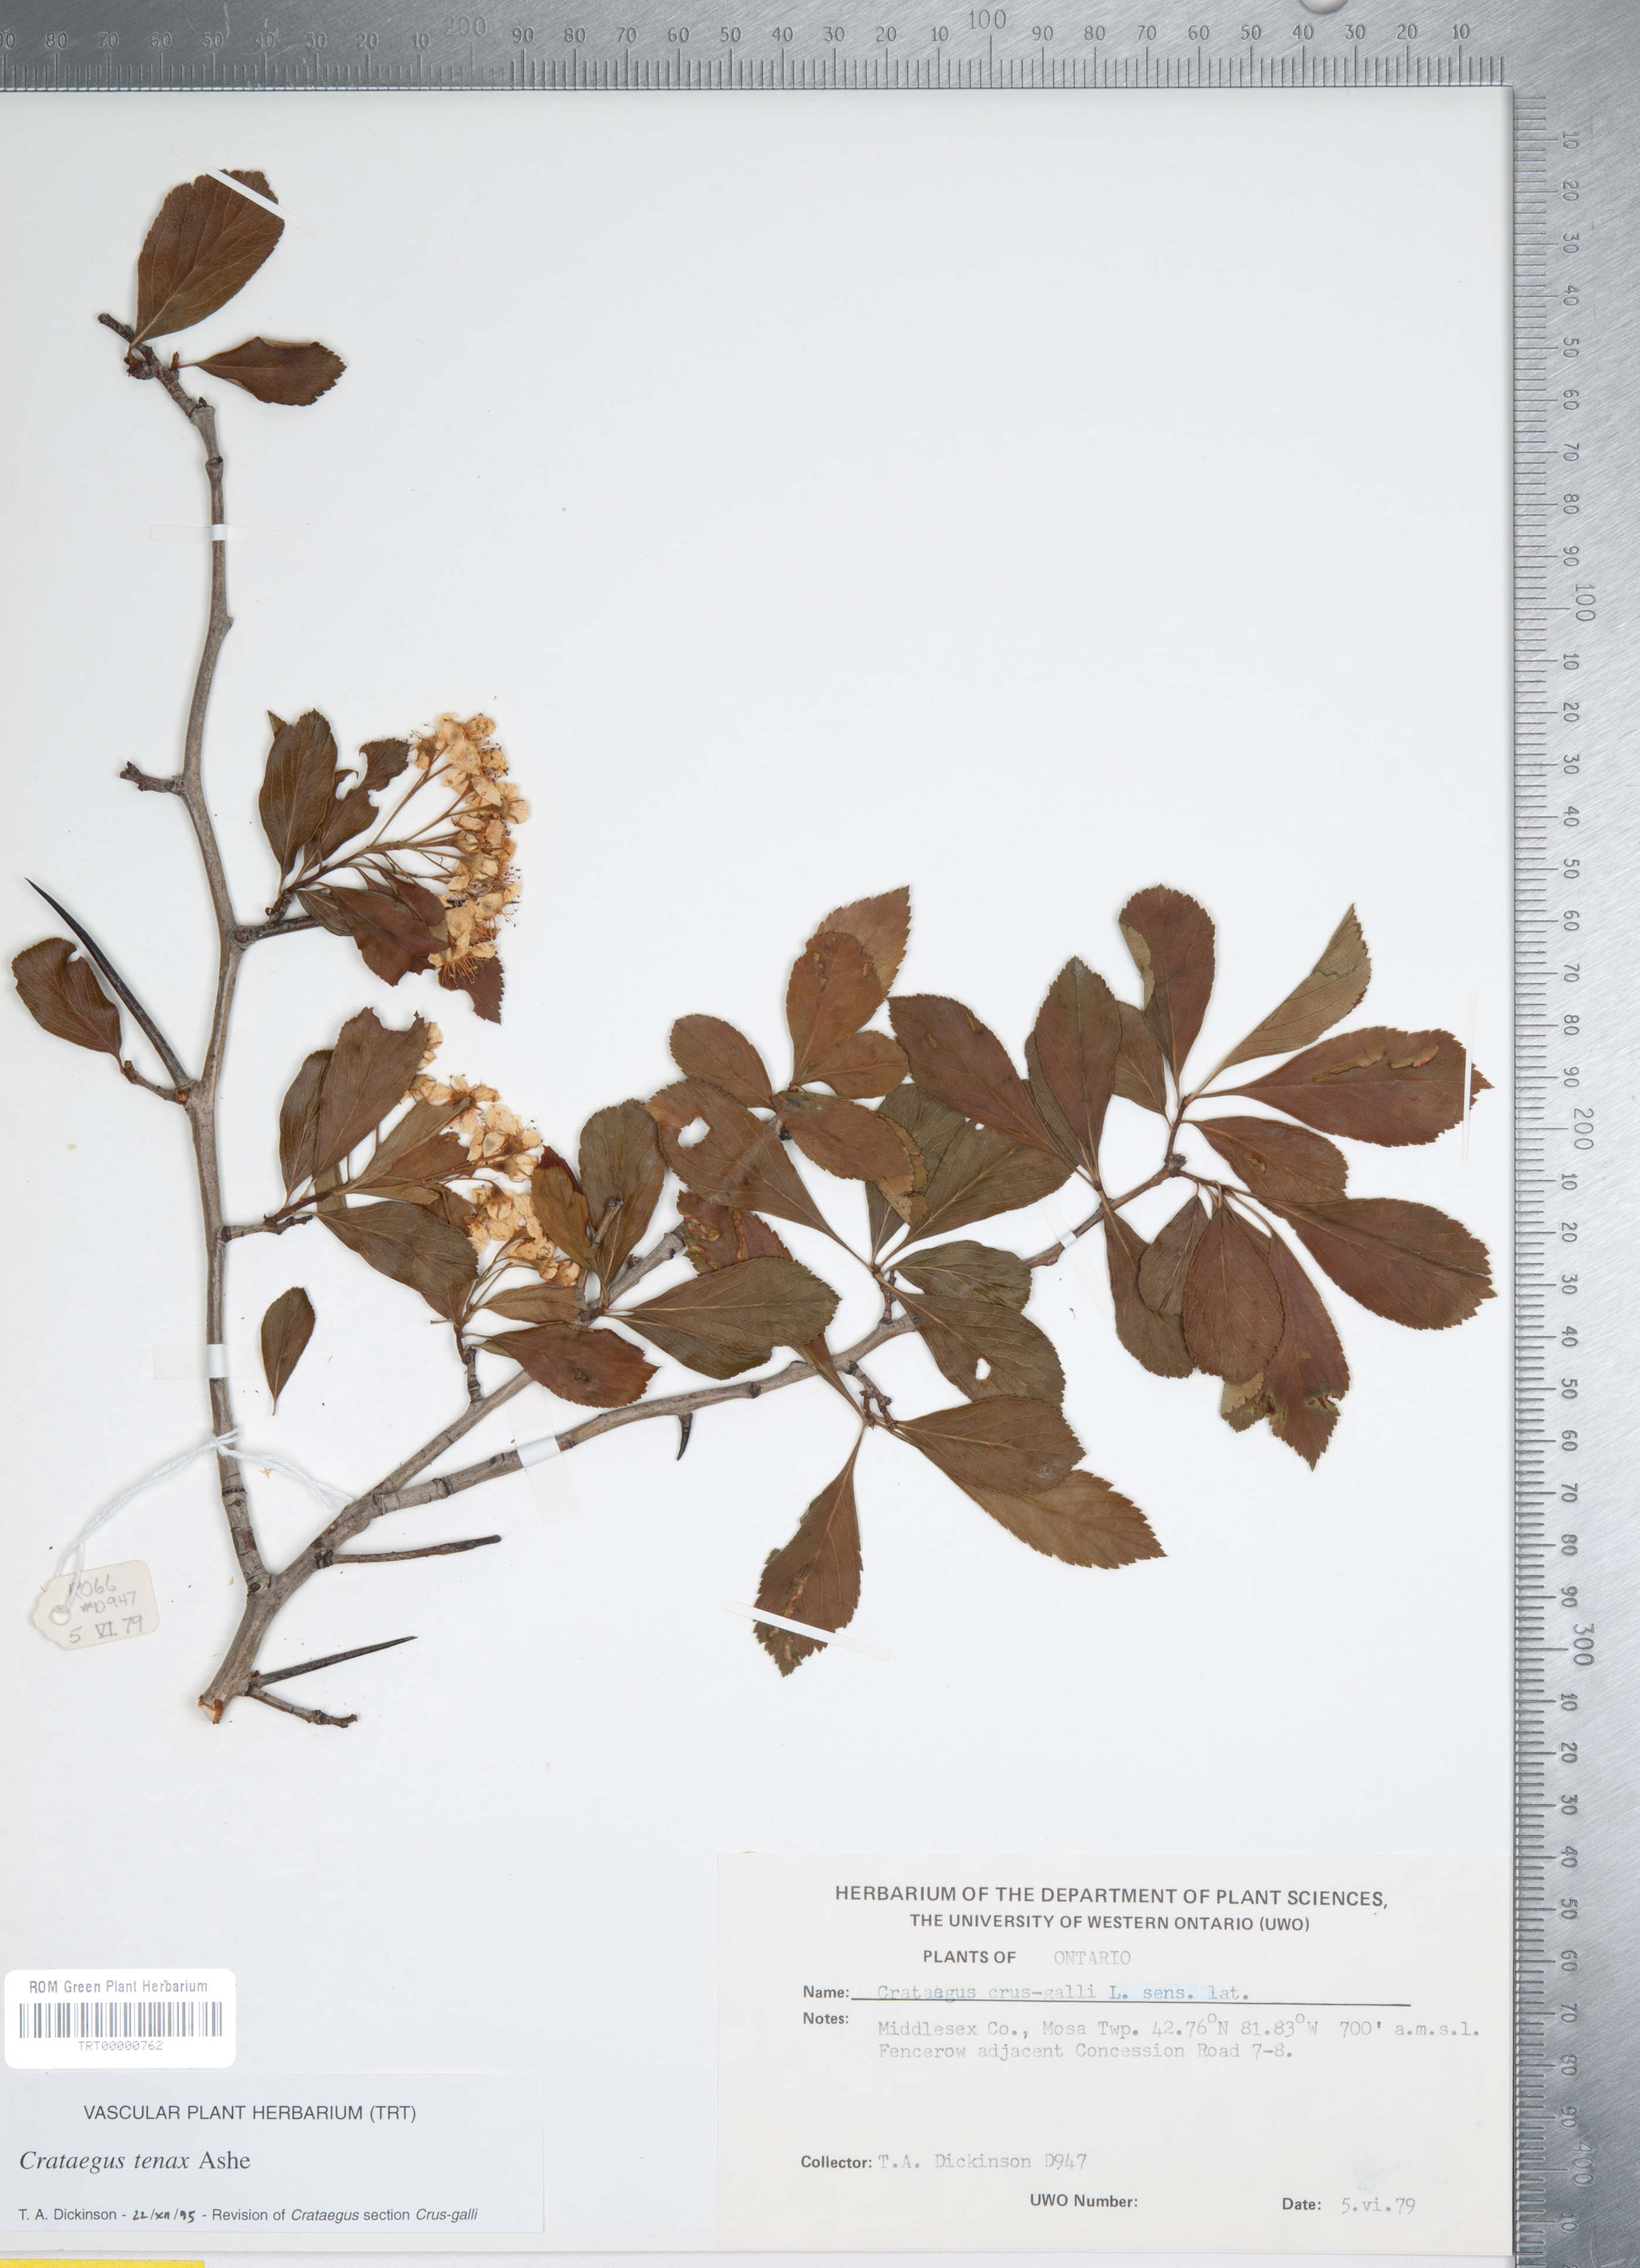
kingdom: Plantae
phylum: Tracheophyta
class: Magnoliopsida
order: Rosales
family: Rosaceae
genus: Crataegus
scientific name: Crataegus crus-galli
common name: Cockspurthorn
